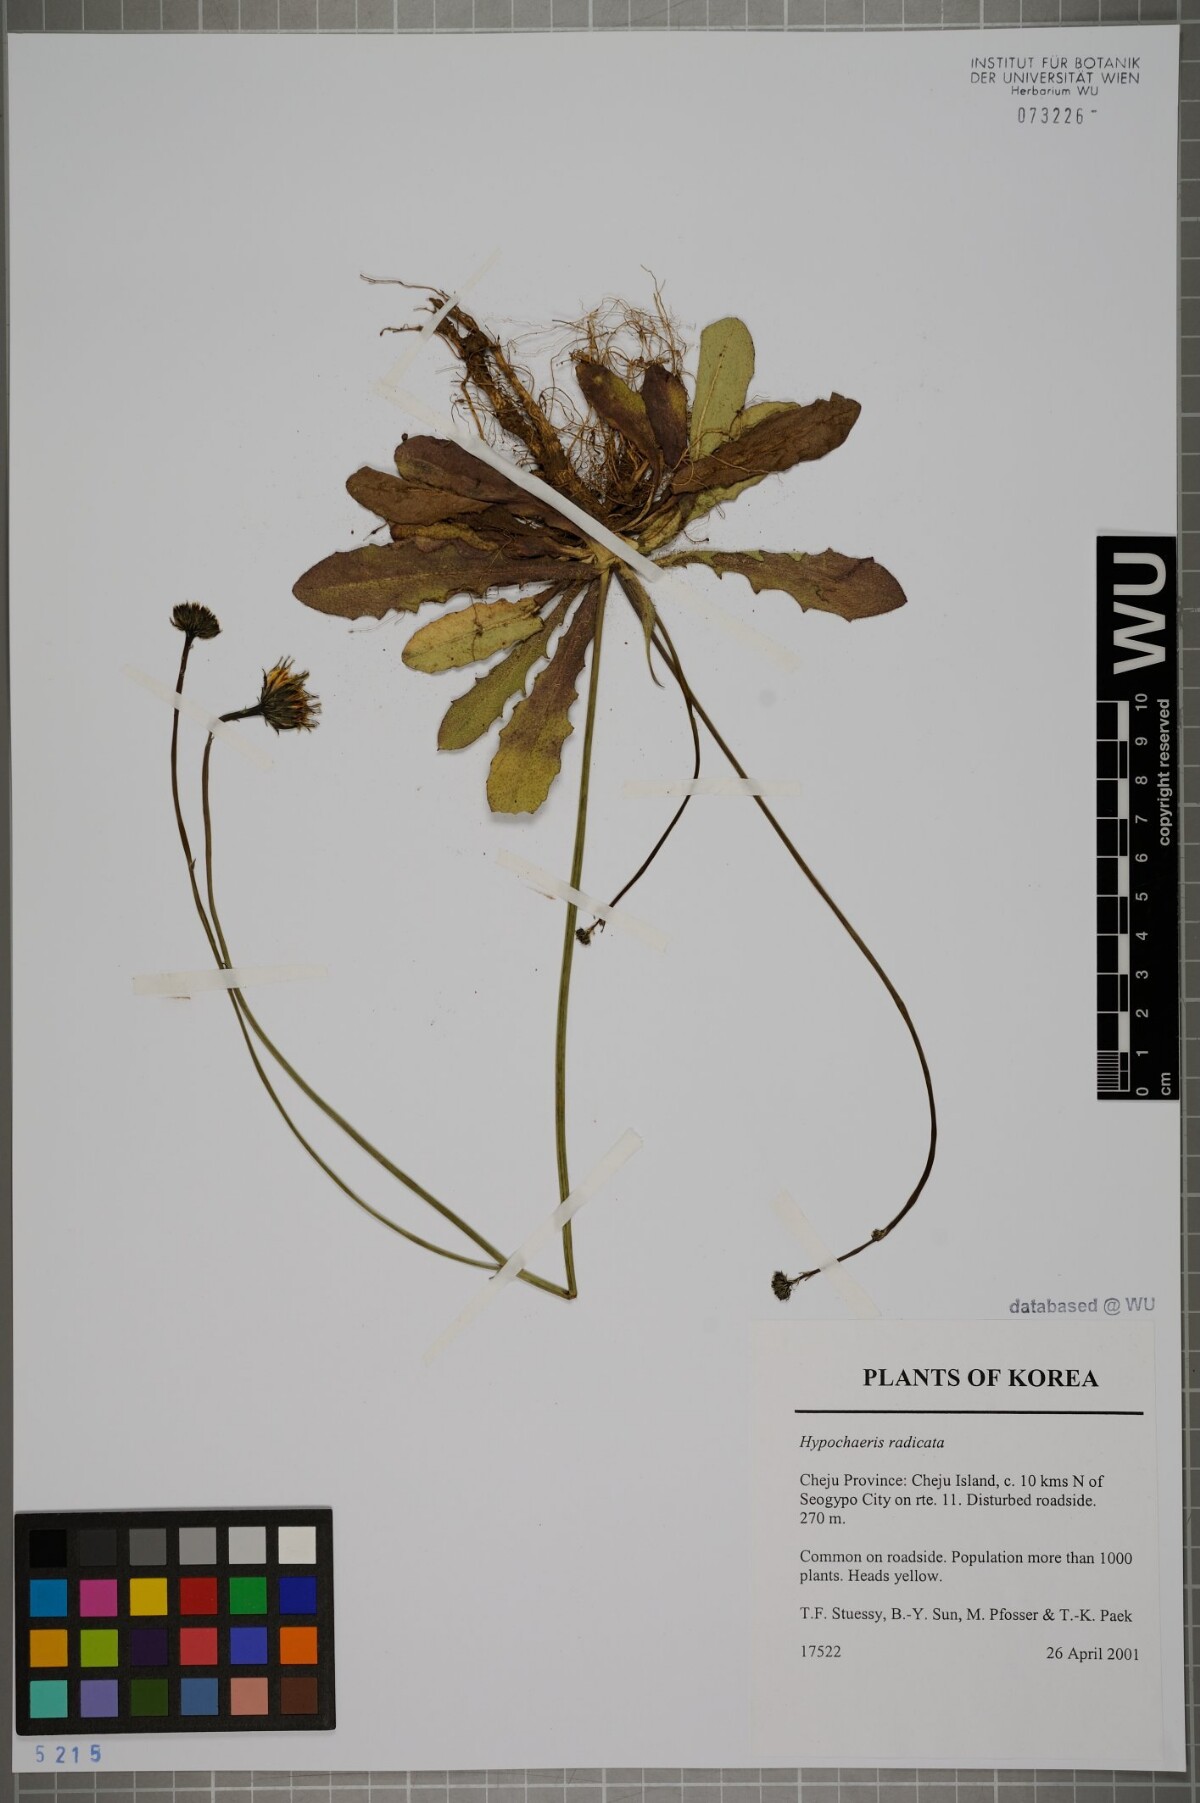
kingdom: Plantae
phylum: Tracheophyta
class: Magnoliopsida
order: Asterales
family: Asteraceae
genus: Hypochaeris
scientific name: Hypochaeris radicata
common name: Flatweed
